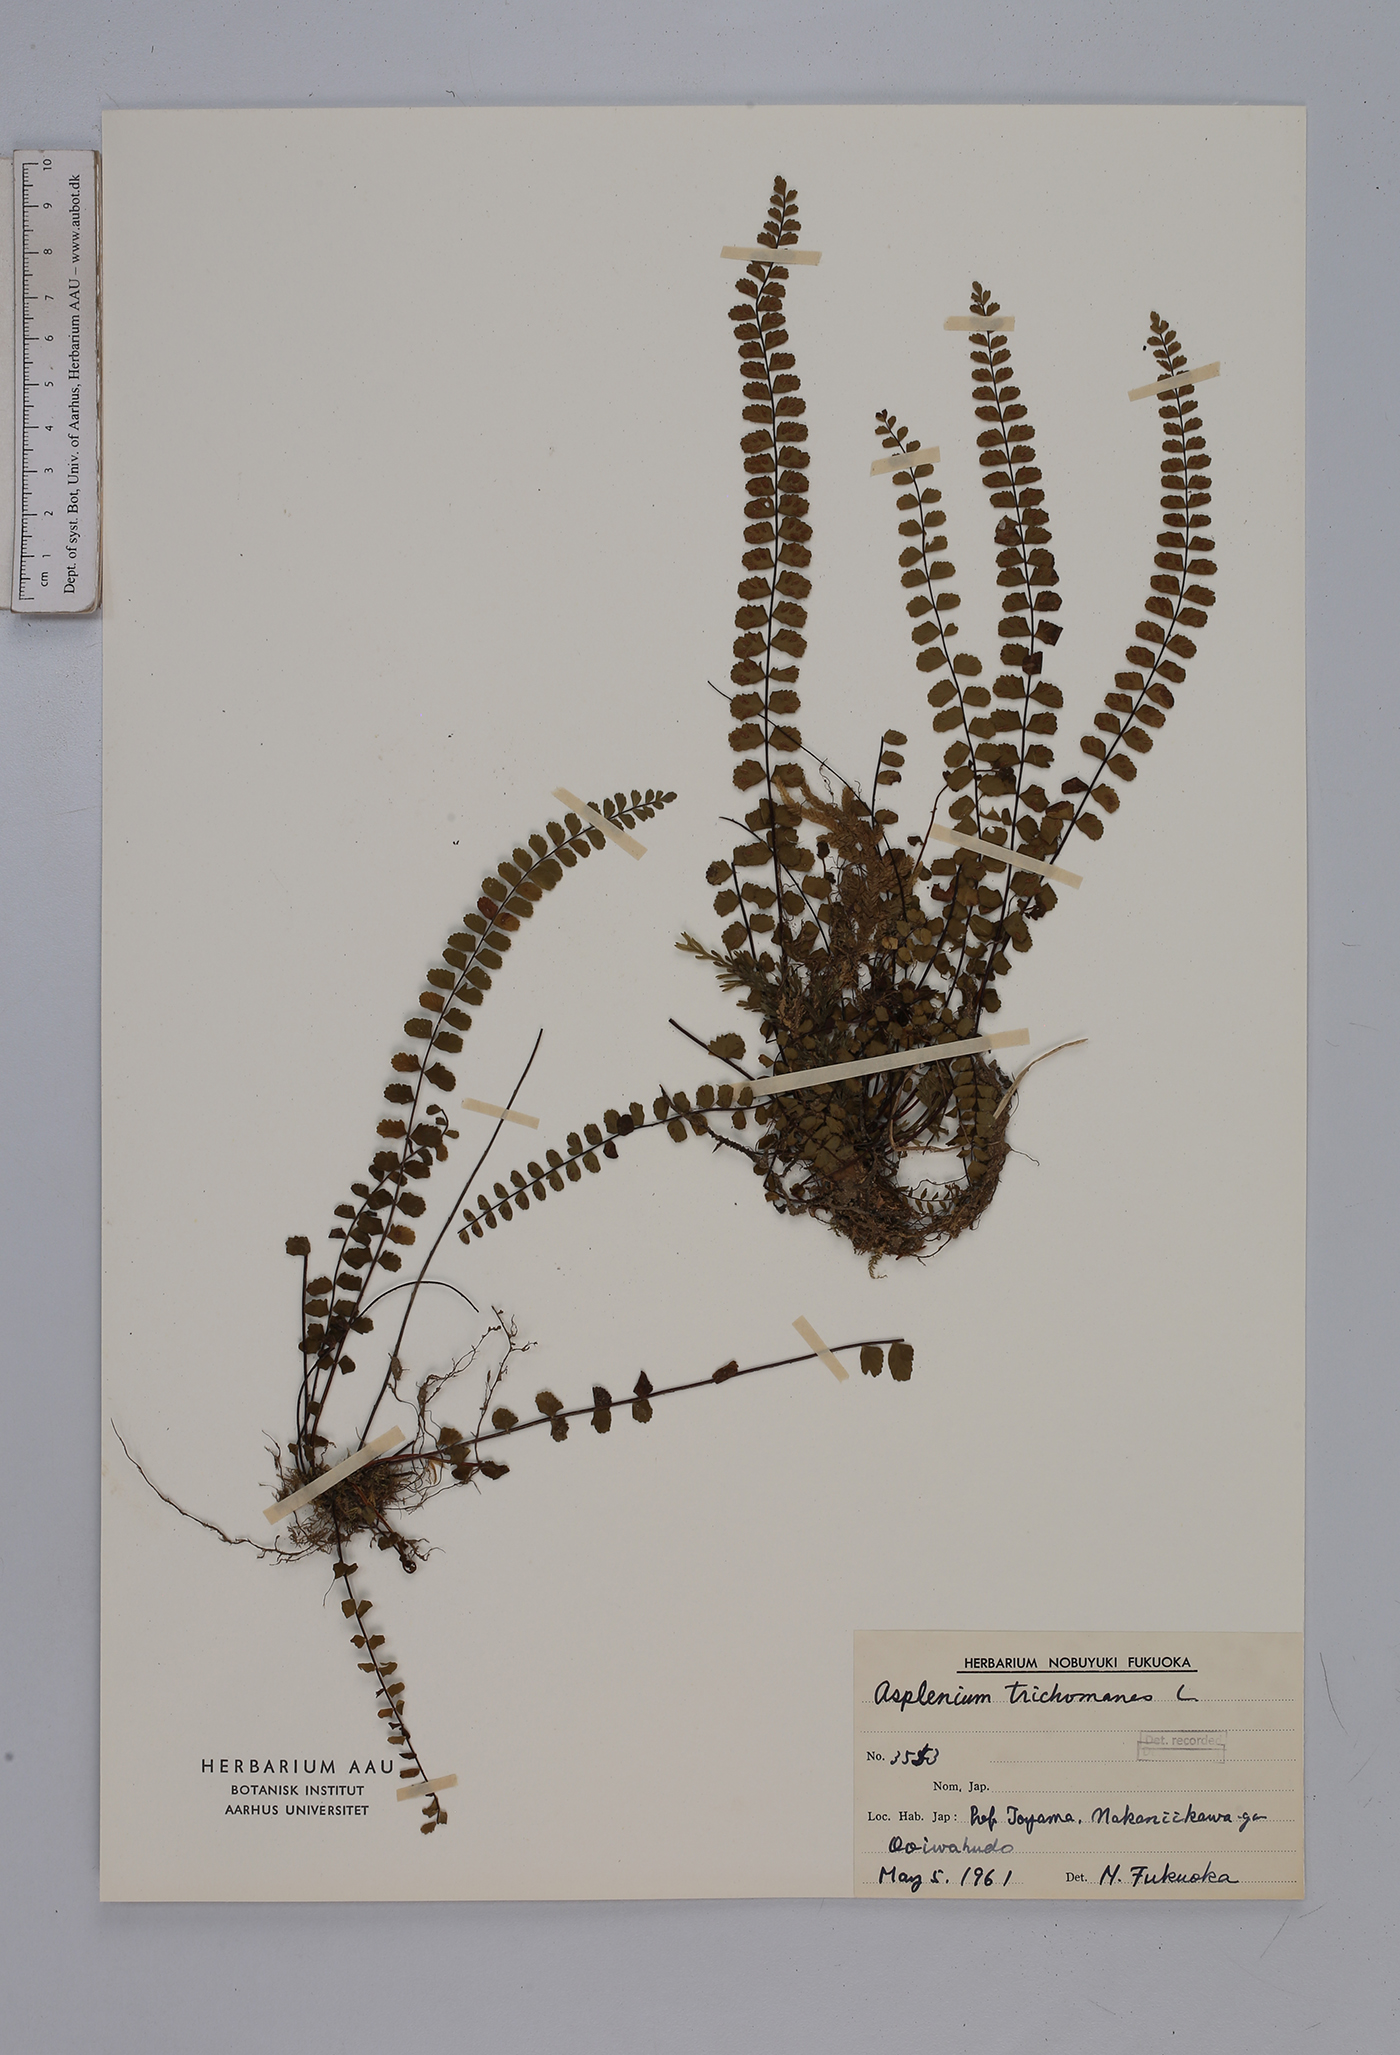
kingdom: Plantae
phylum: Tracheophyta
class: Polypodiopsida
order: Polypodiales
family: Aspleniaceae
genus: Asplenium
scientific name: Asplenium trichomanes
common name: Maidenhair spleenwort
